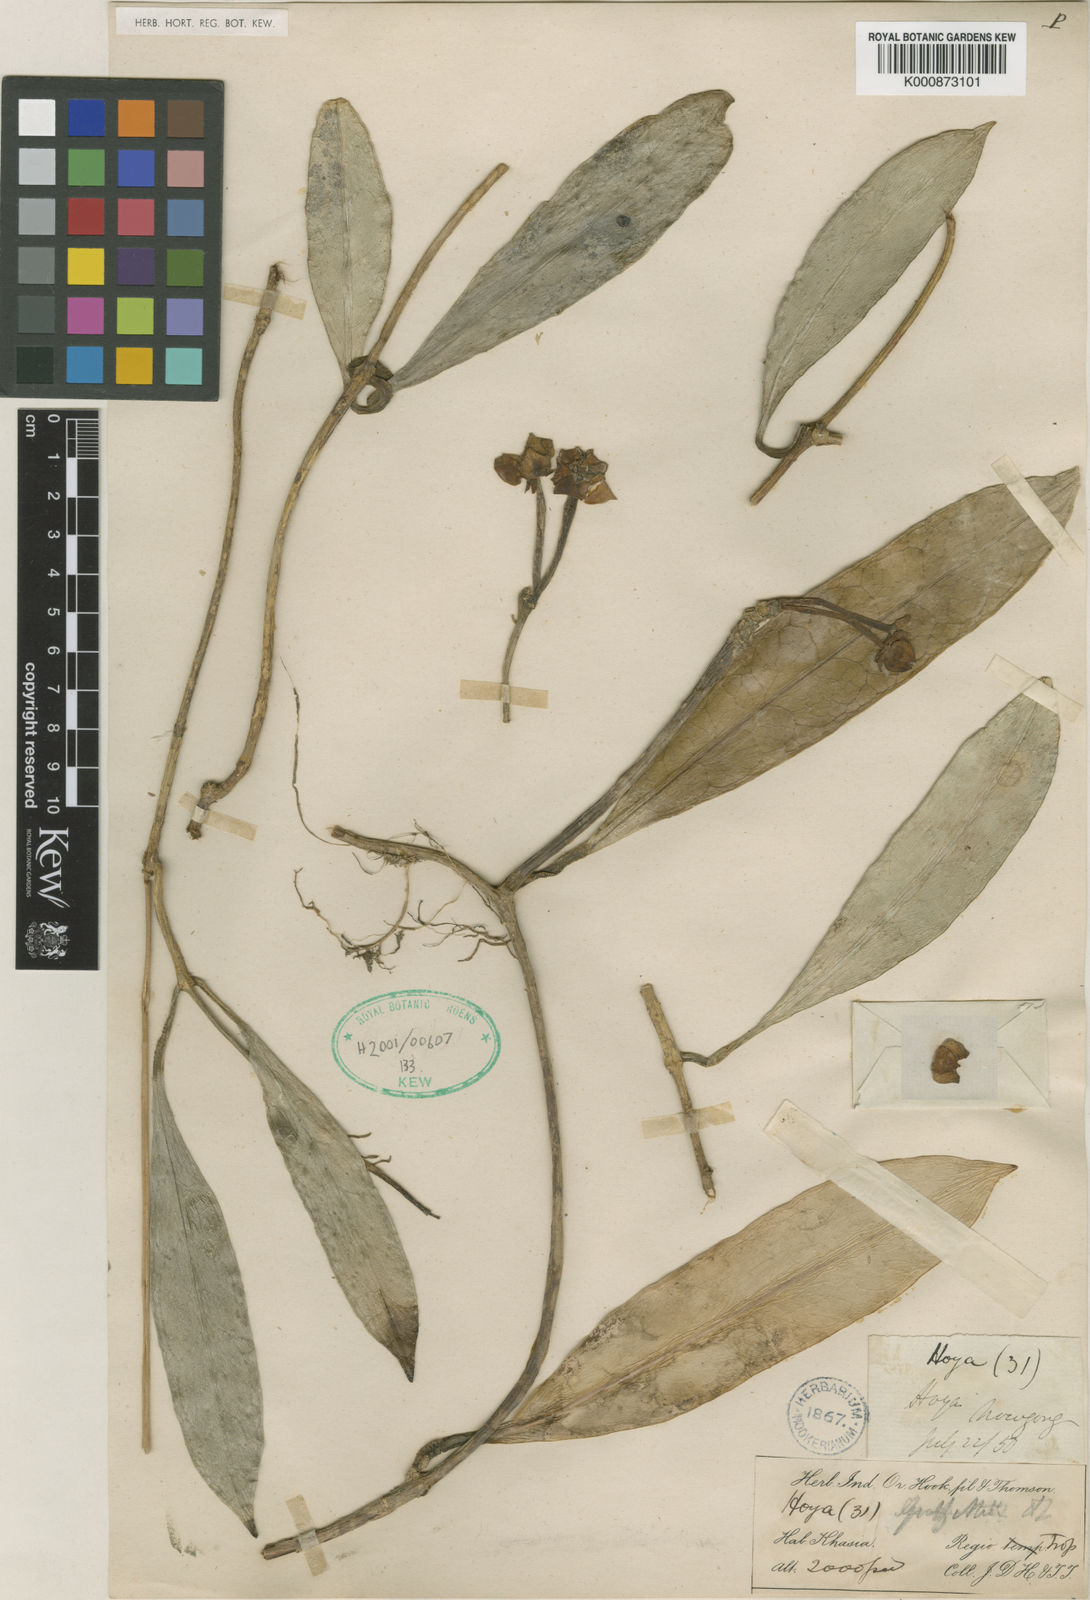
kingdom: Plantae
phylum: Tracheophyta
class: Magnoliopsida
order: Gentianales
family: Apocynaceae
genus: Hoya
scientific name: Hoya griffithii
